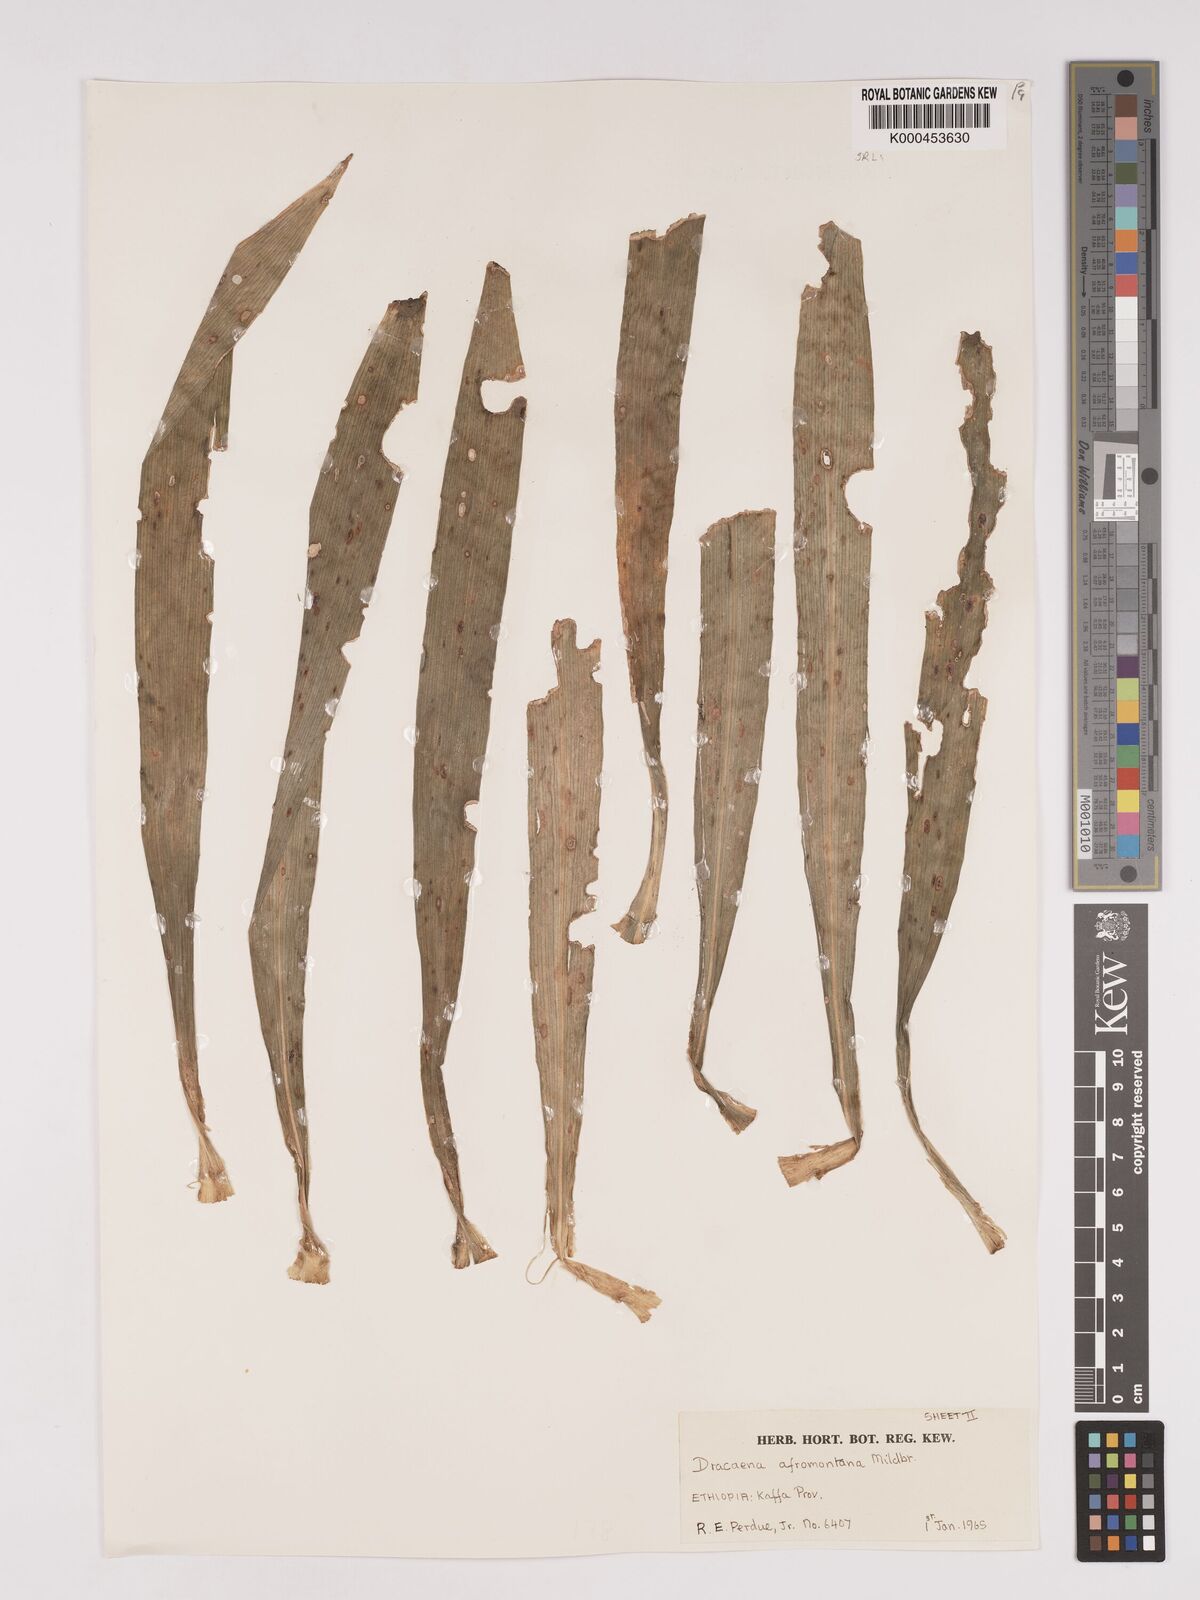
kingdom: Plantae
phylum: Tracheophyta
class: Liliopsida
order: Asparagales
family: Asparagaceae
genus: Dracaena
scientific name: Dracaena afromontana
